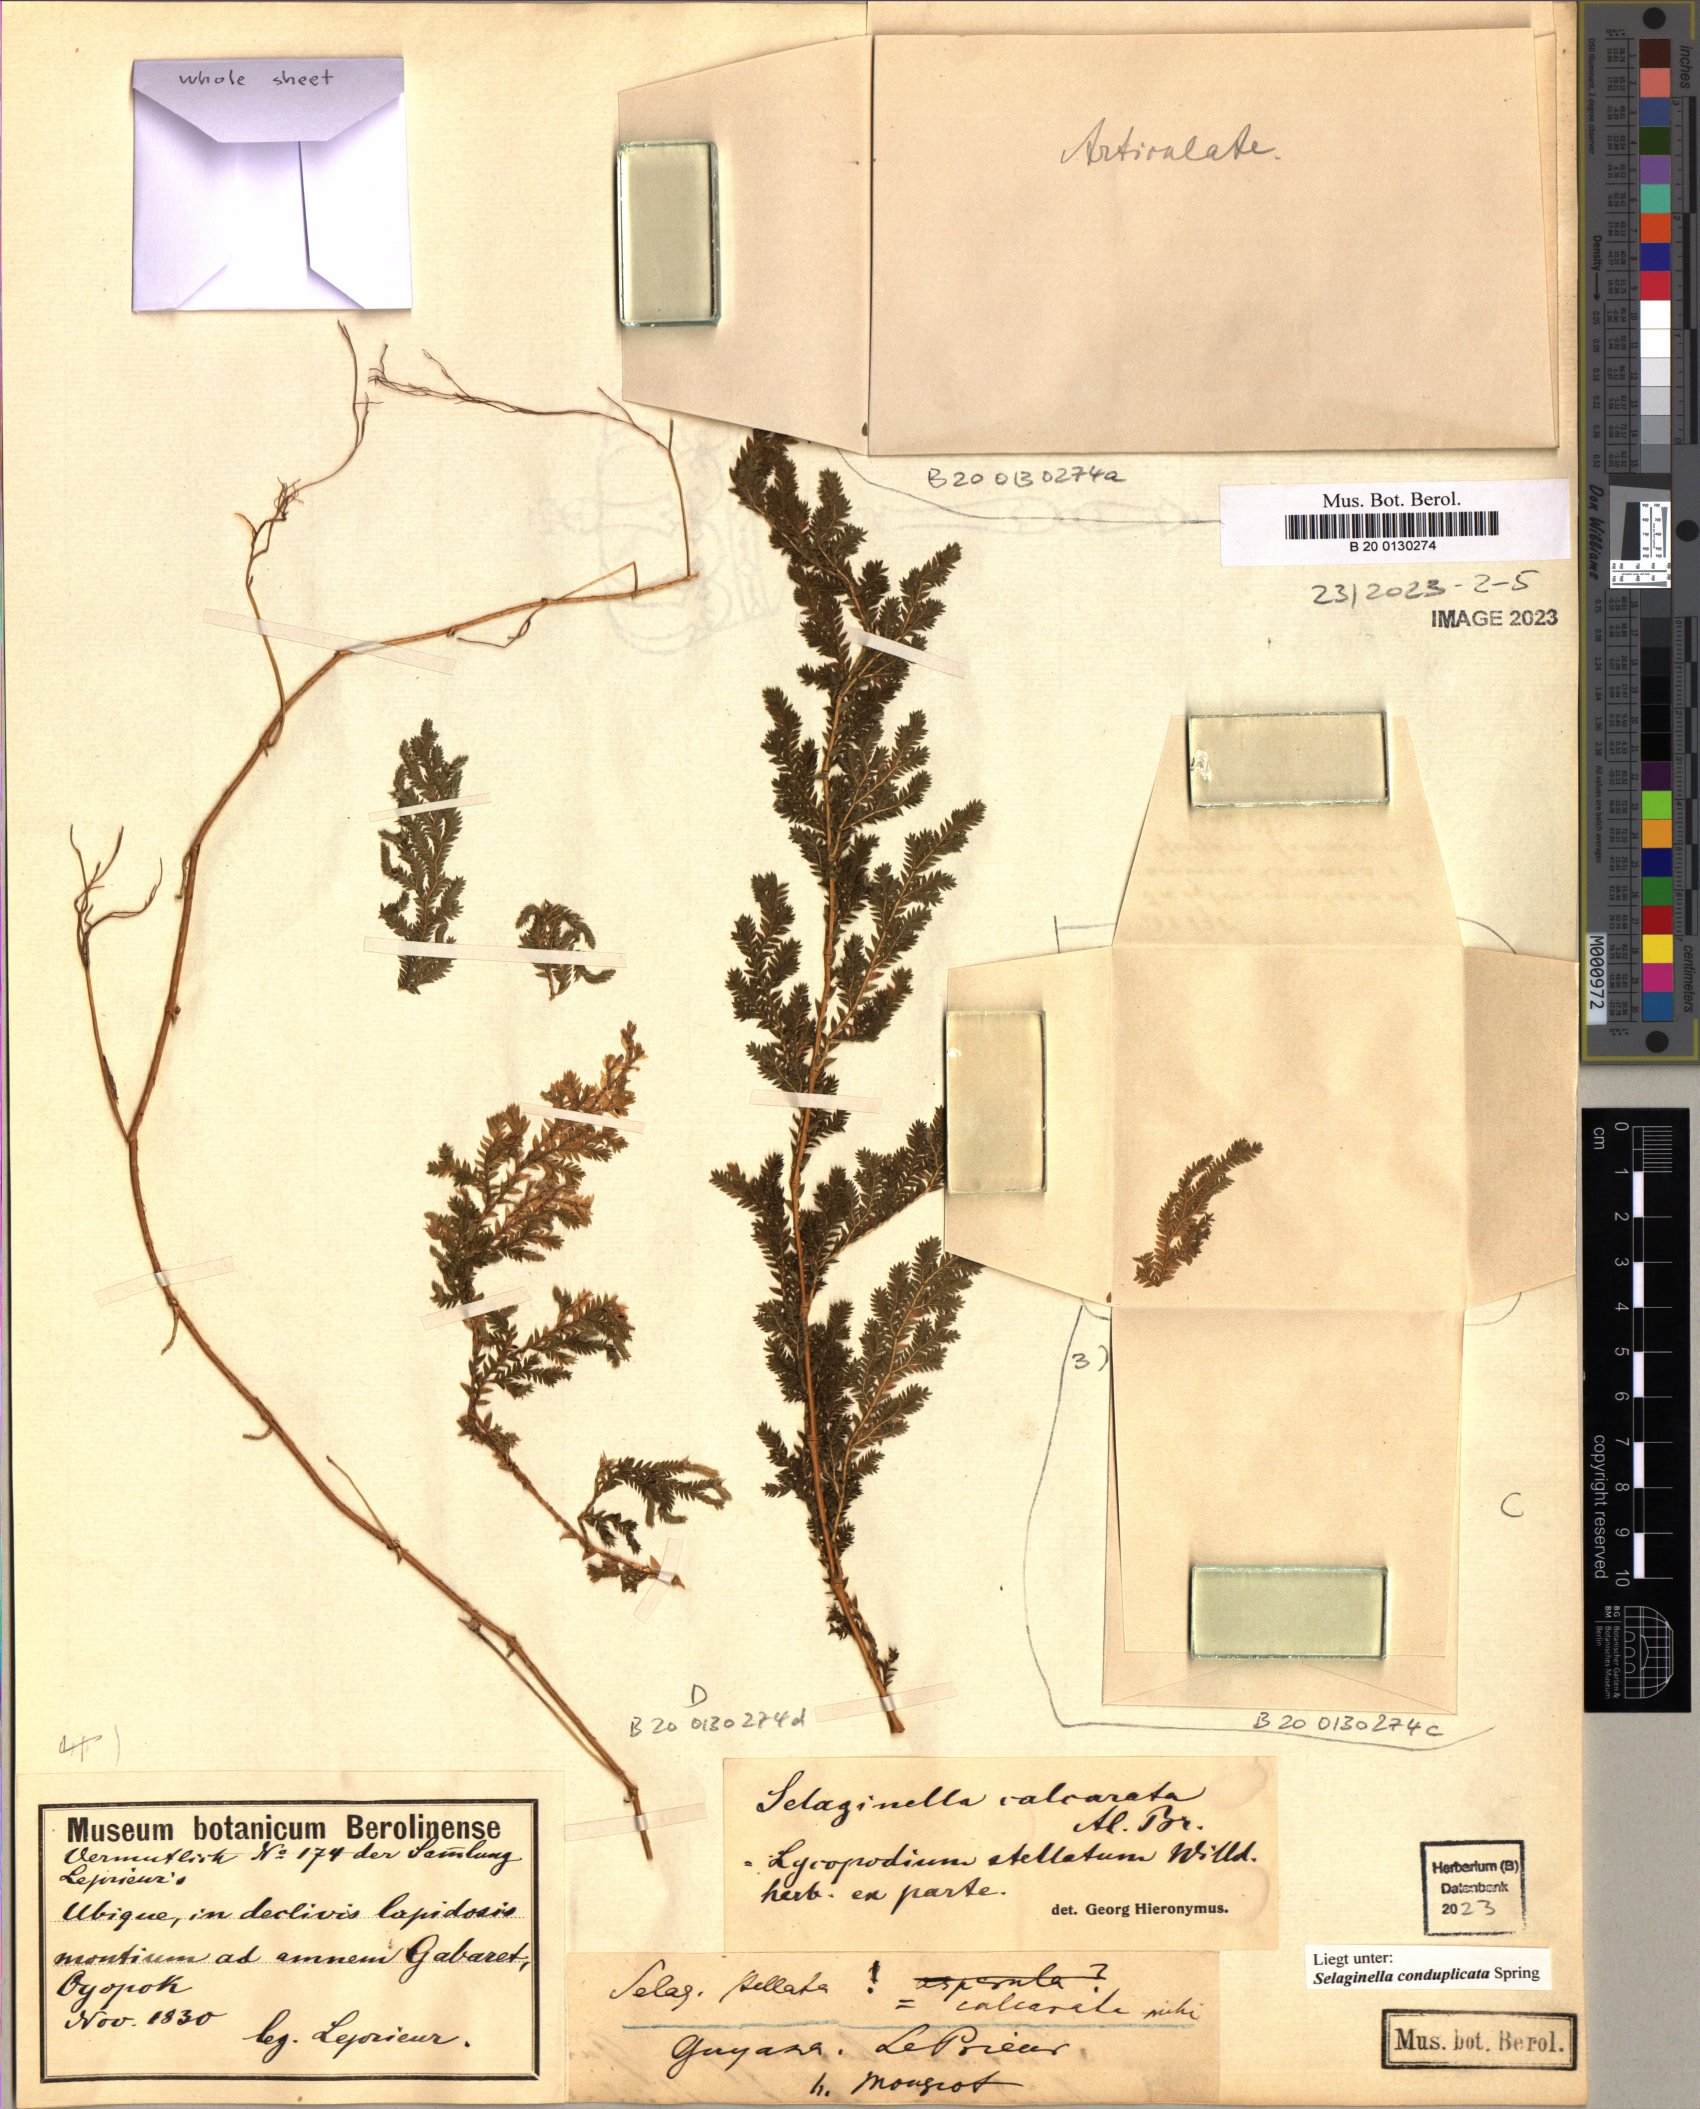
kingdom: Plantae
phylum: Tracheophyta
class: Lycopodiopsida
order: Selaginellales
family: Selaginellaceae
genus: Selaginella
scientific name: Selaginella conduplicata
